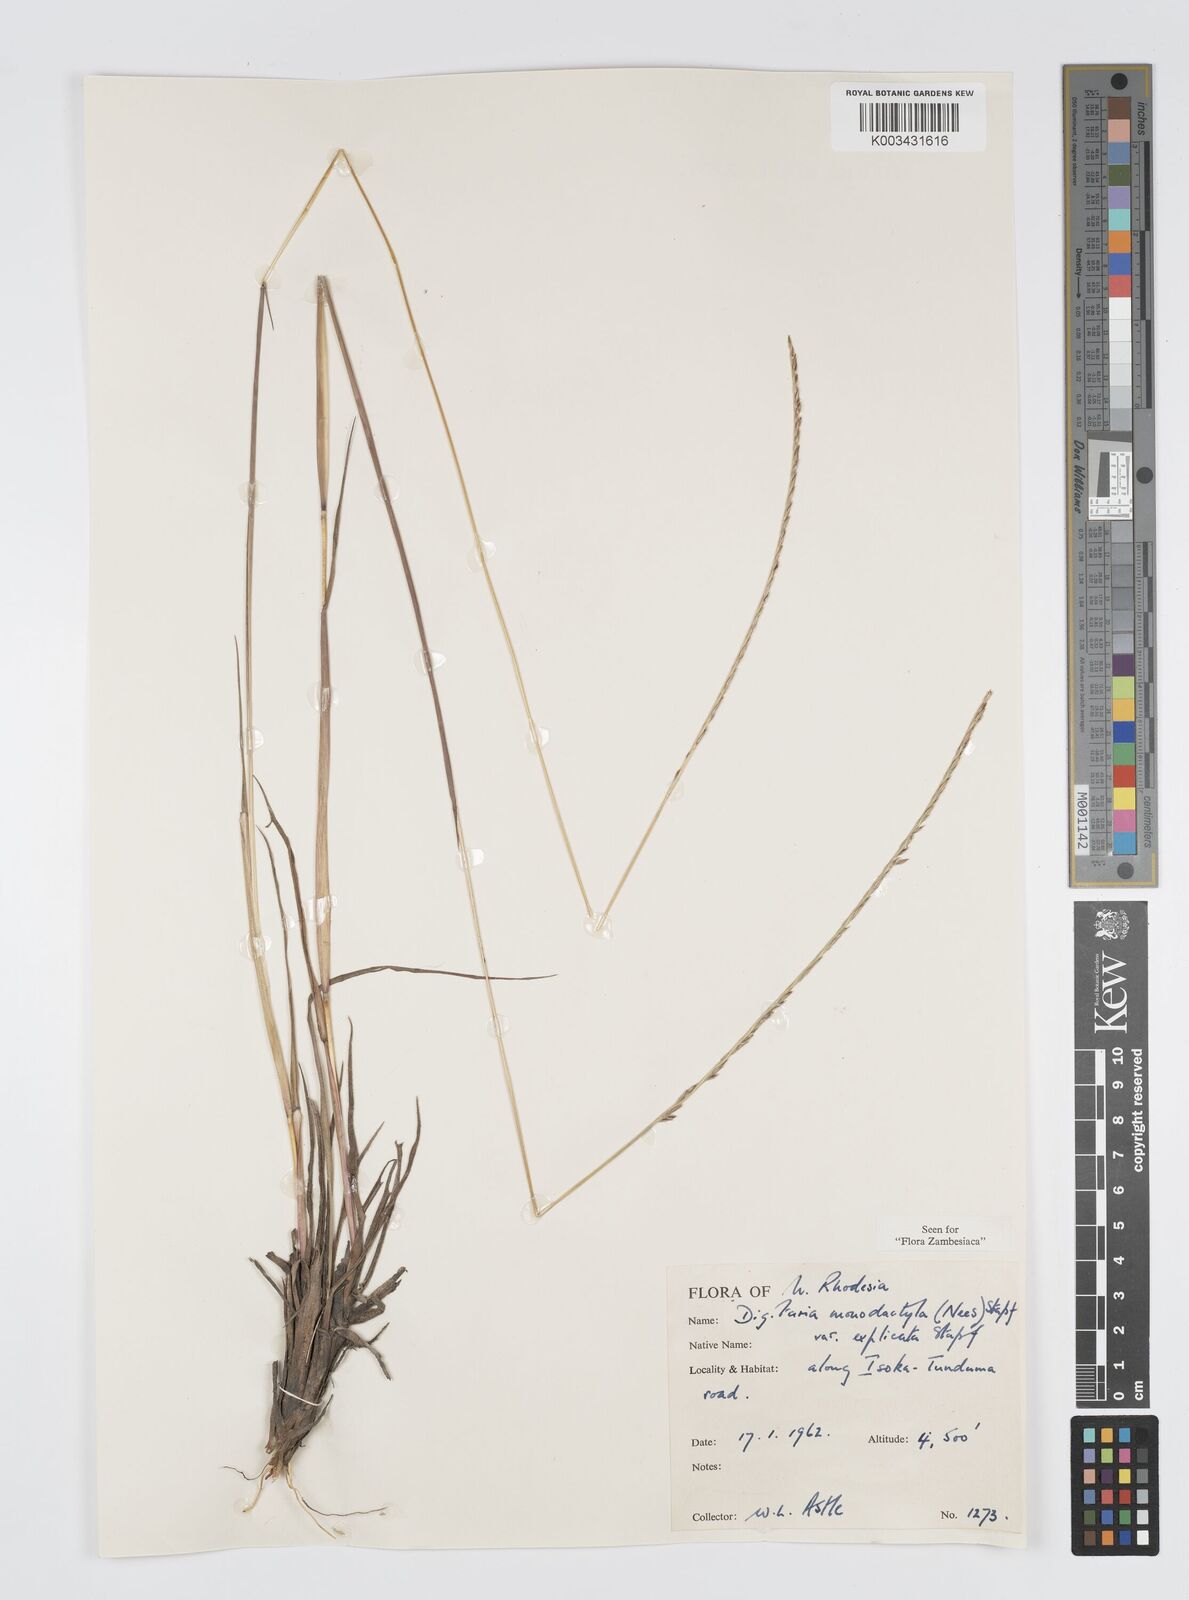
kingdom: Plantae
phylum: Tracheophyta
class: Liliopsida
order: Poales
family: Poaceae
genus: Digitaria
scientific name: Digitaria monodactyla
